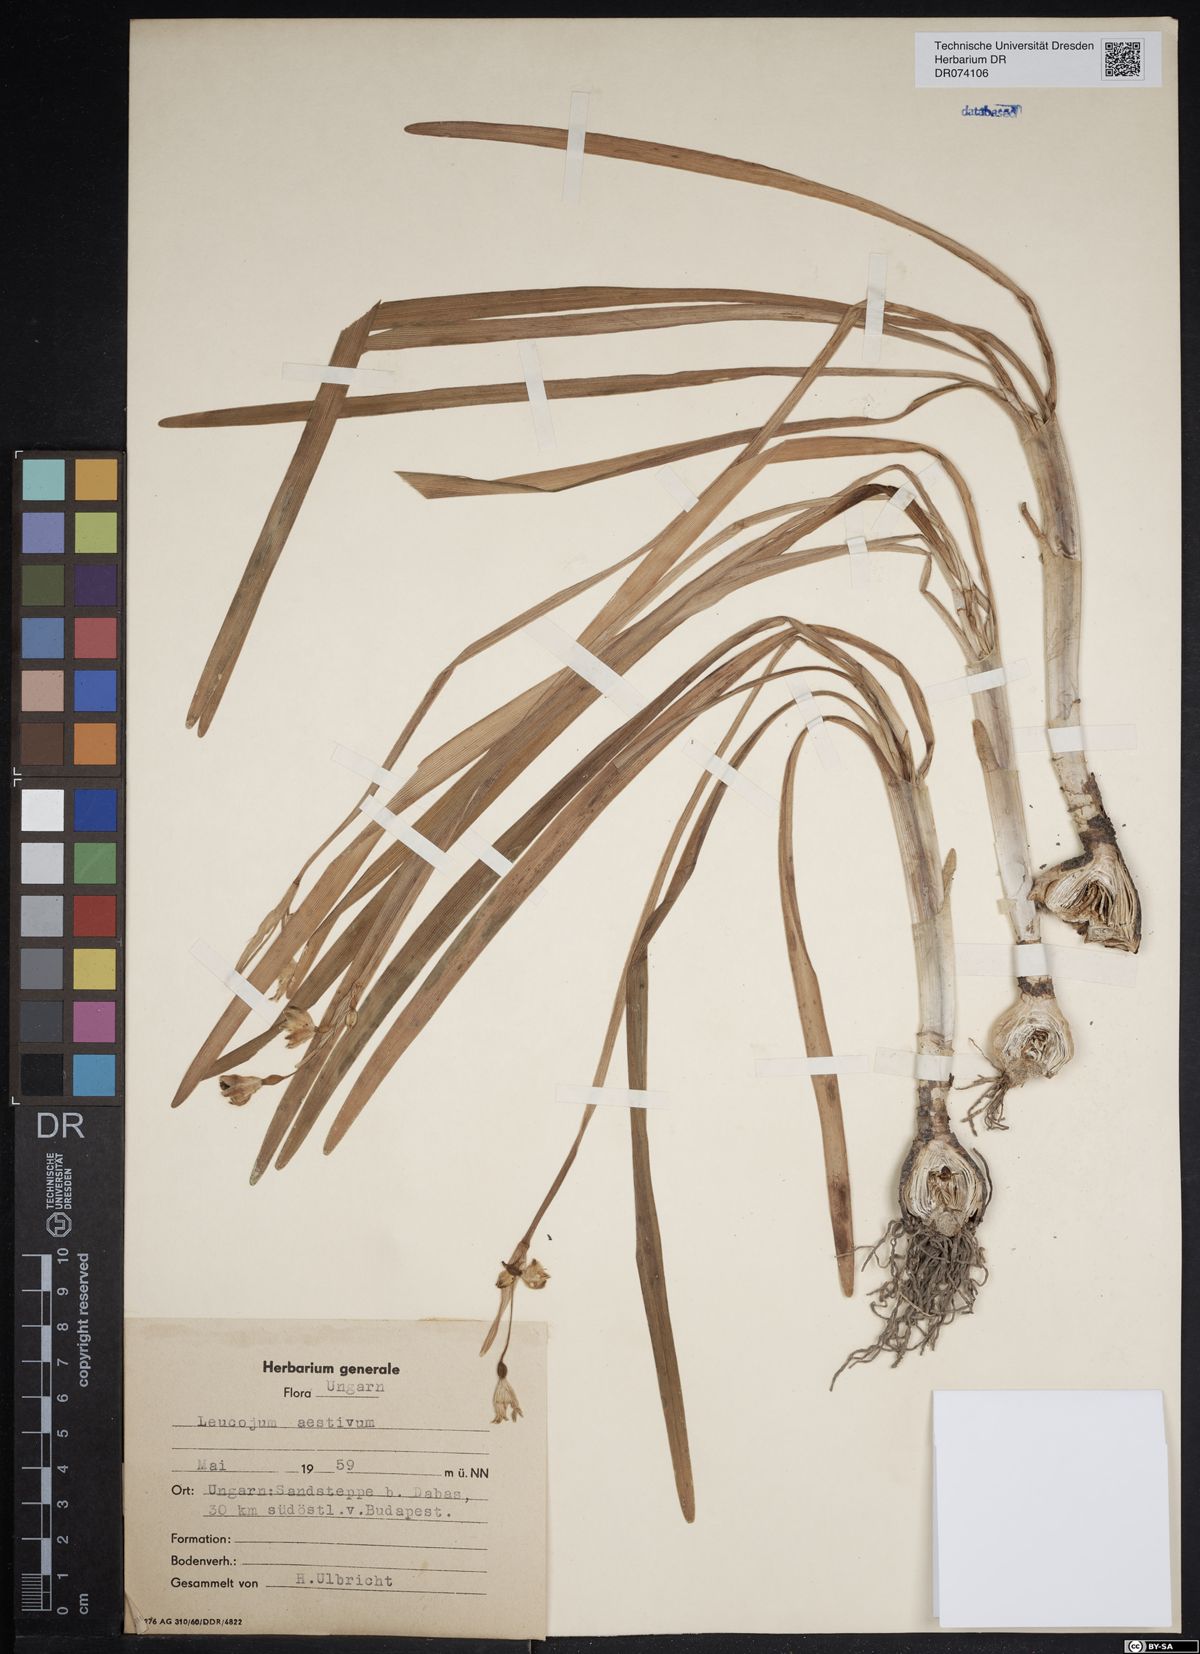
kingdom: Plantae
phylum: Tracheophyta
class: Liliopsida
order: Asparagales
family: Amaryllidaceae
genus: Leucojum
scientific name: Leucojum aestivum
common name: Summer snowflake
